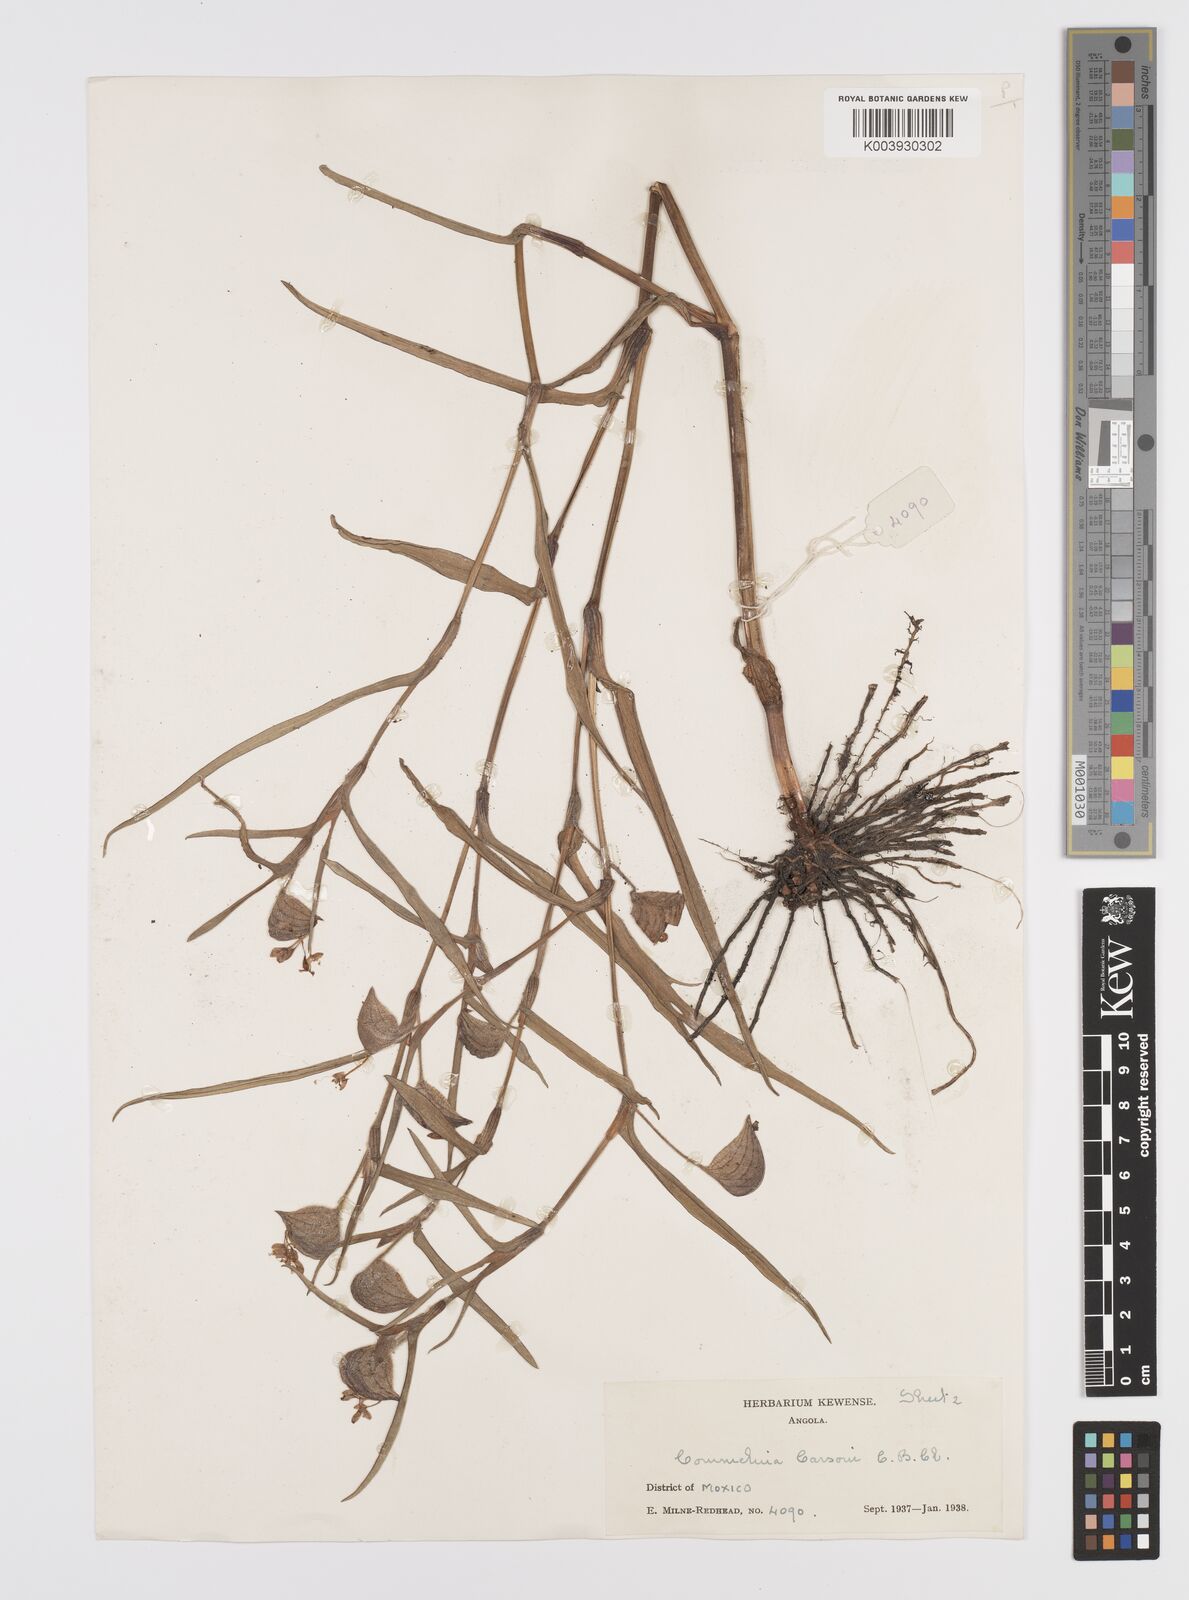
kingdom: Plantae
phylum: Tracheophyta
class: Liliopsida
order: Commelinales
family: Commelinaceae
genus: Commelina
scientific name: Commelina schweinfurthii
